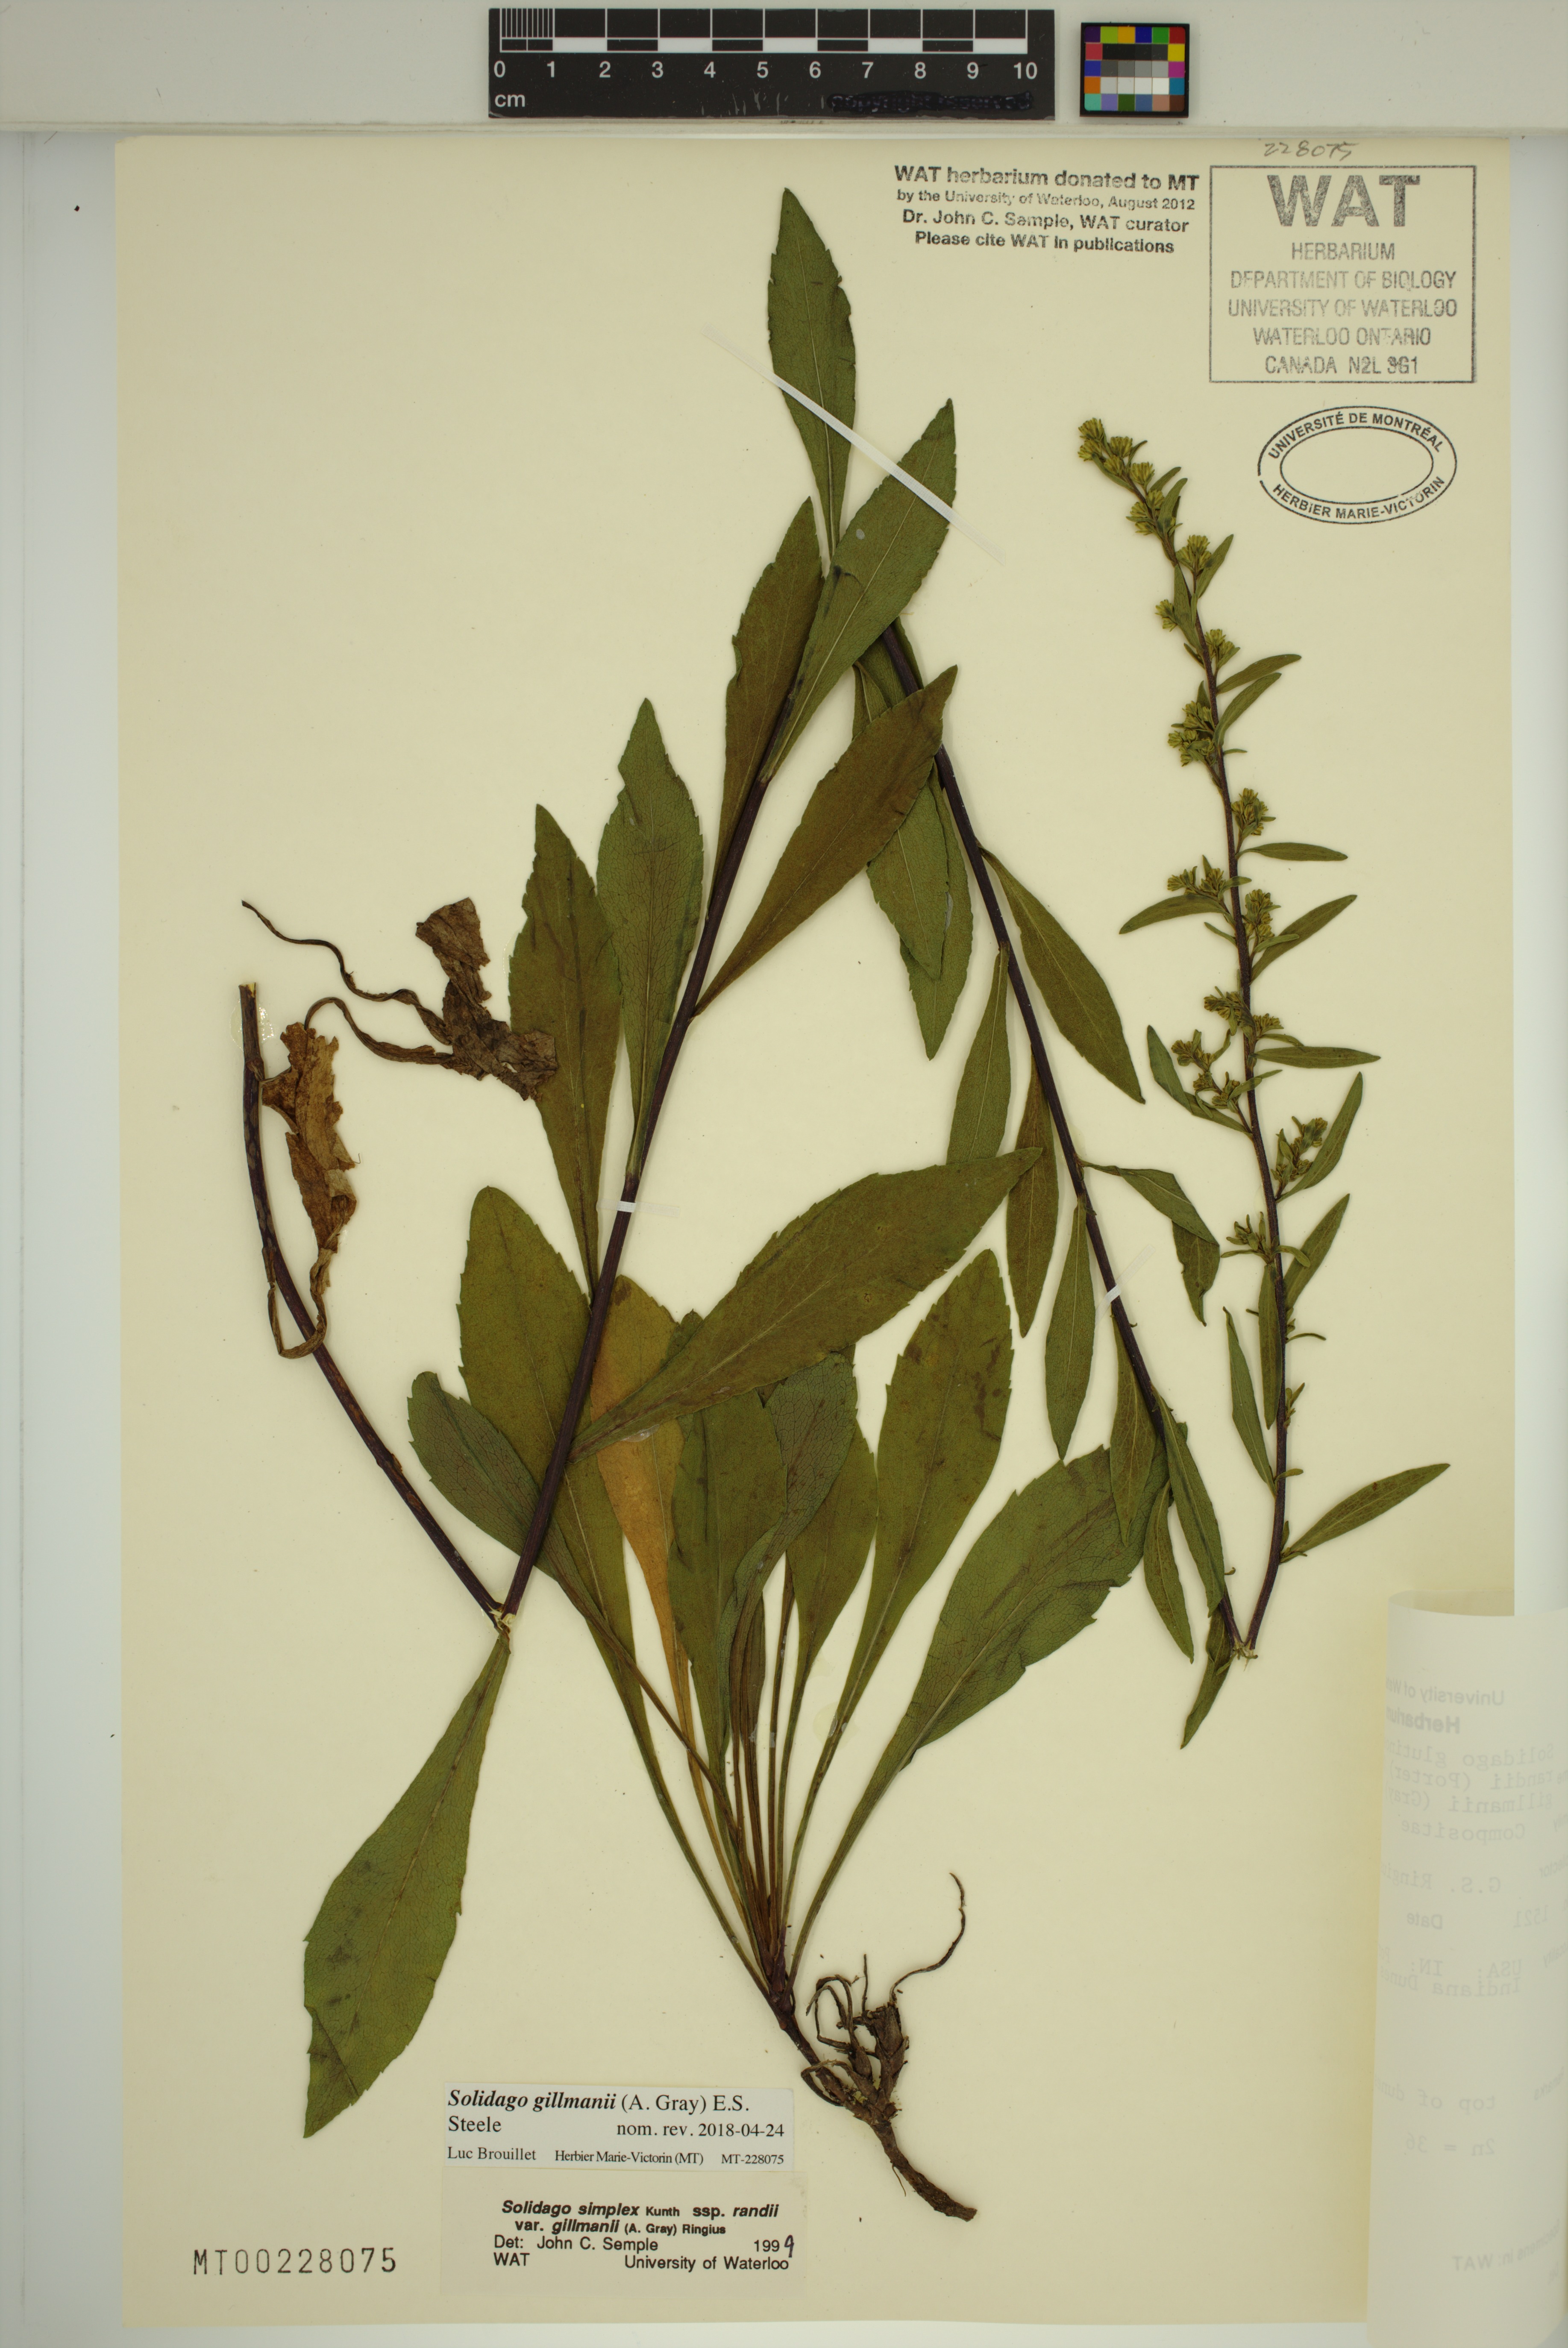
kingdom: Plantae
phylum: Tracheophyta
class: Magnoliopsida
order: Asterales
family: Asteraceae
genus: Solidago
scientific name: Solidago gillmanii
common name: Gillman's goldenrod
